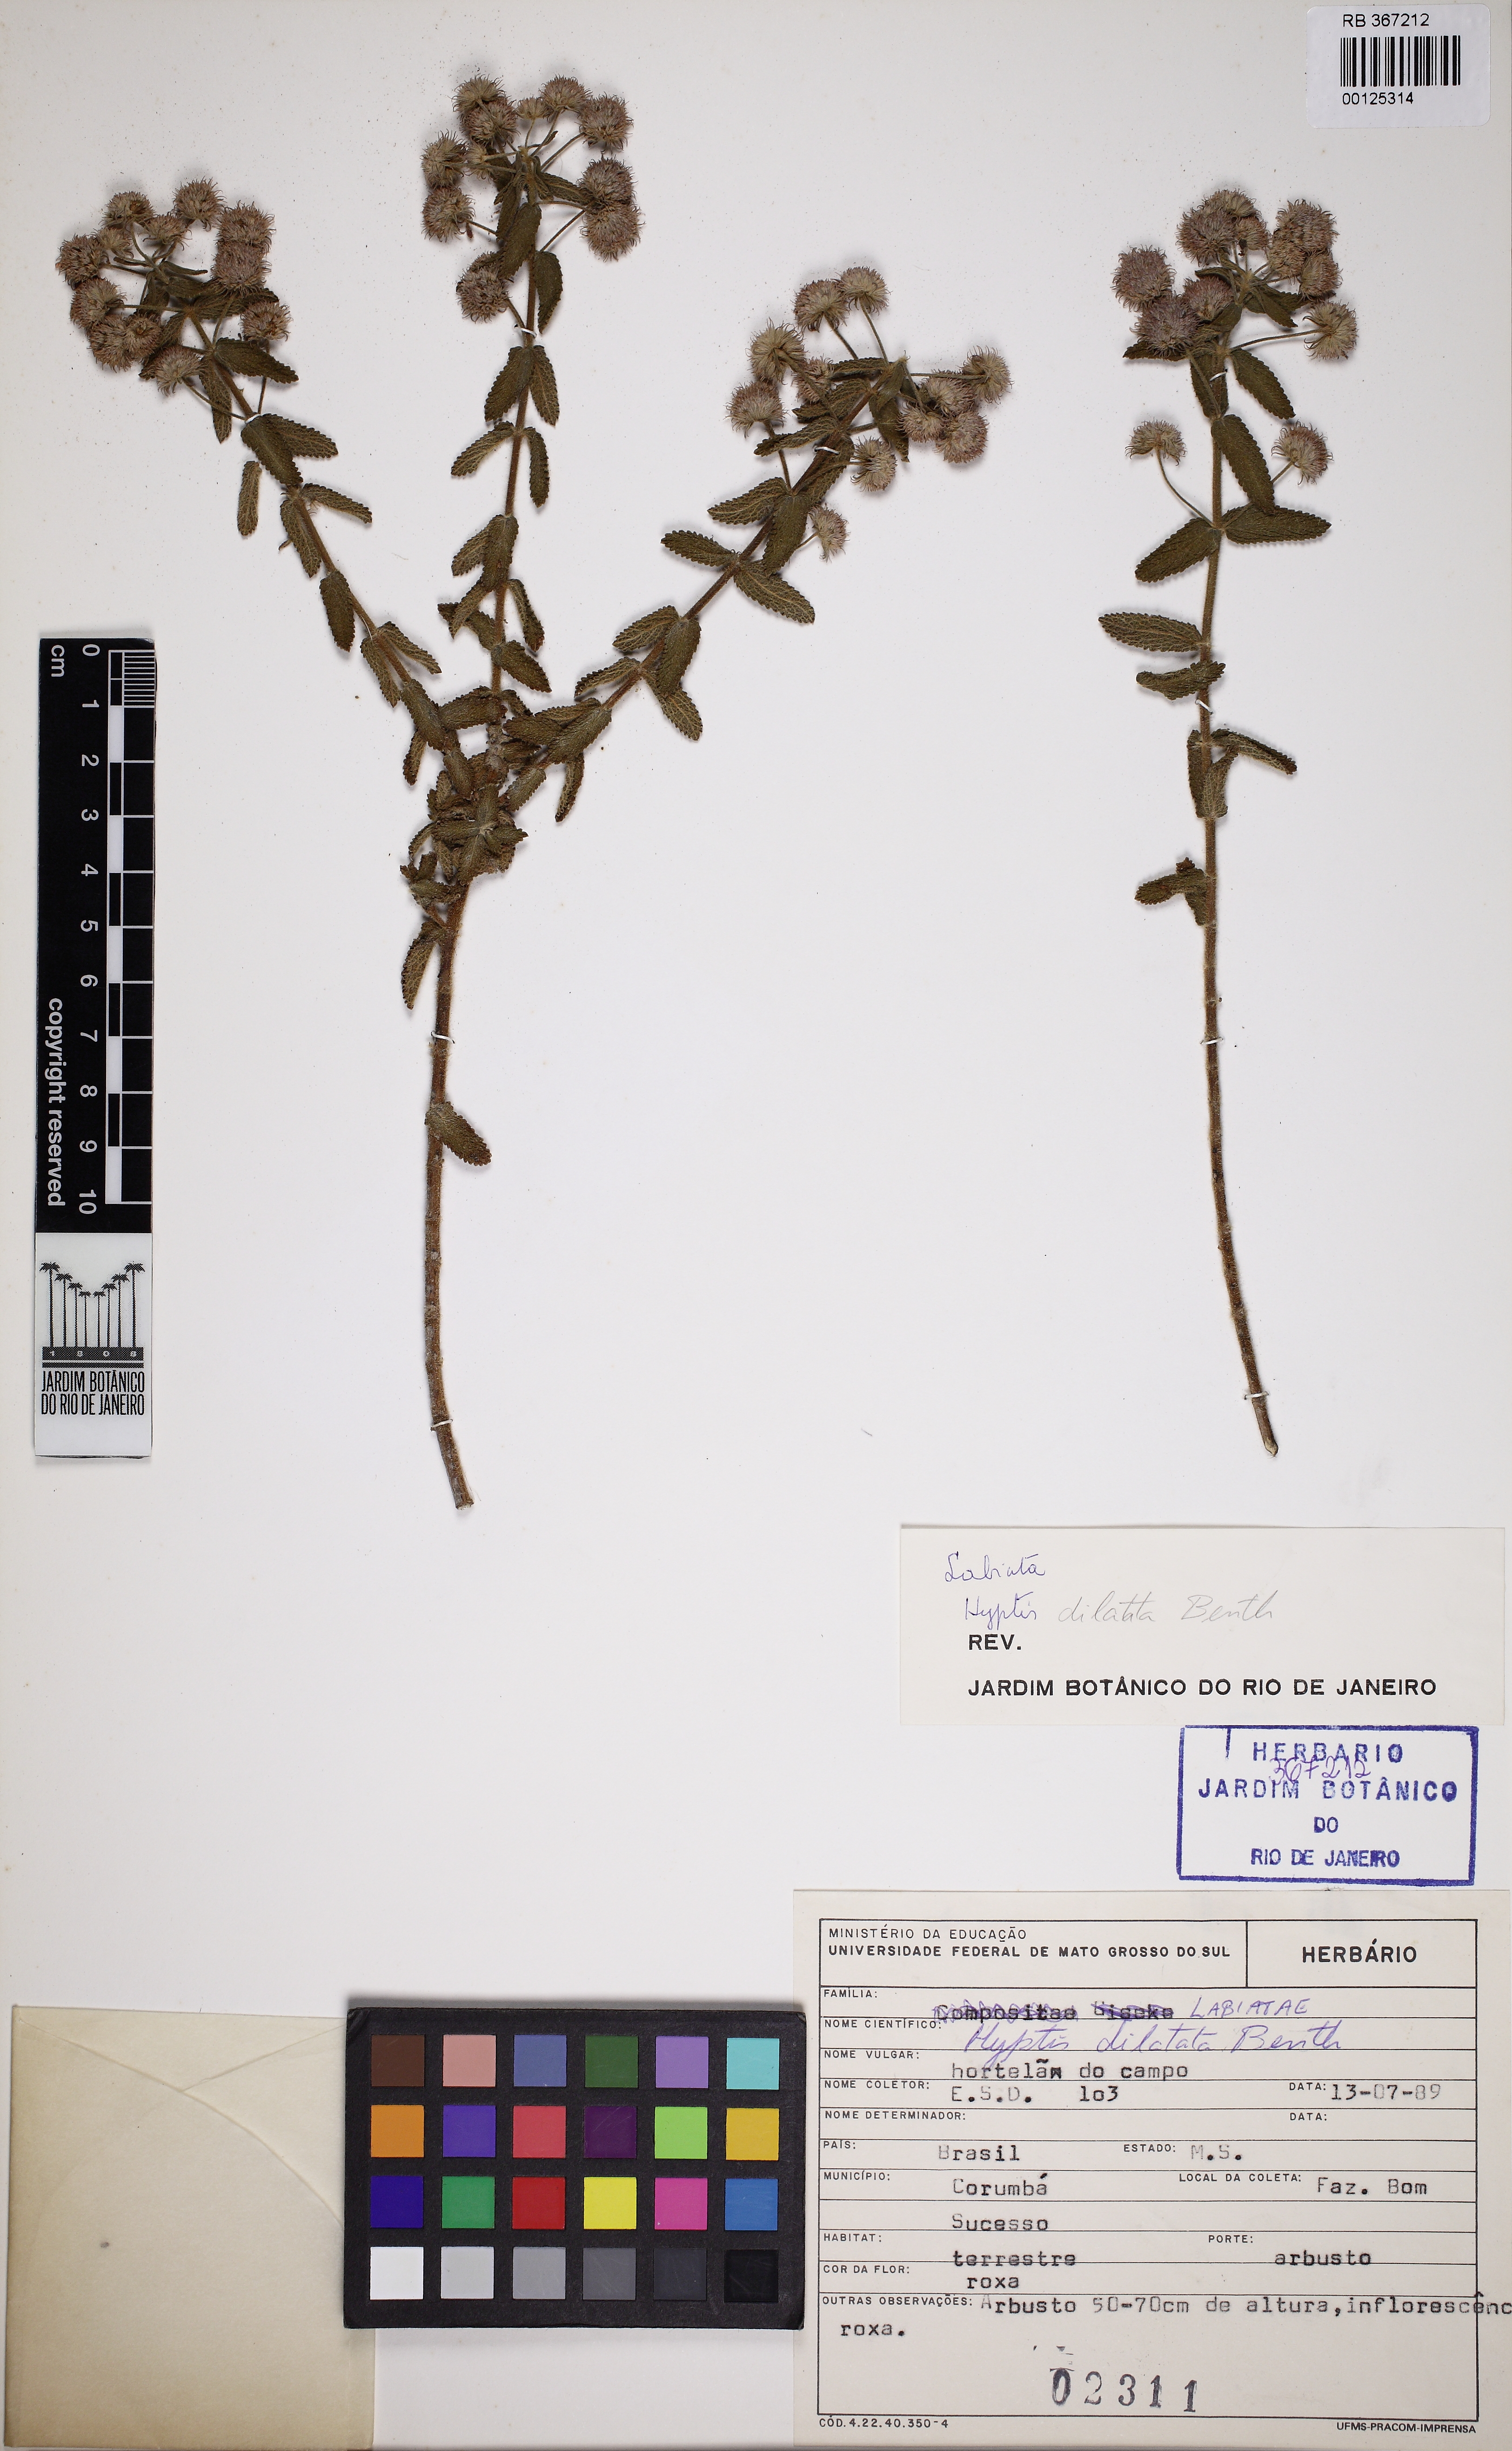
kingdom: Plantae
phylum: Tracheophyta
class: Magnoliopsida
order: Lamiales
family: Lamiaceae
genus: Hyptis
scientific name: Hyptis dilatata
